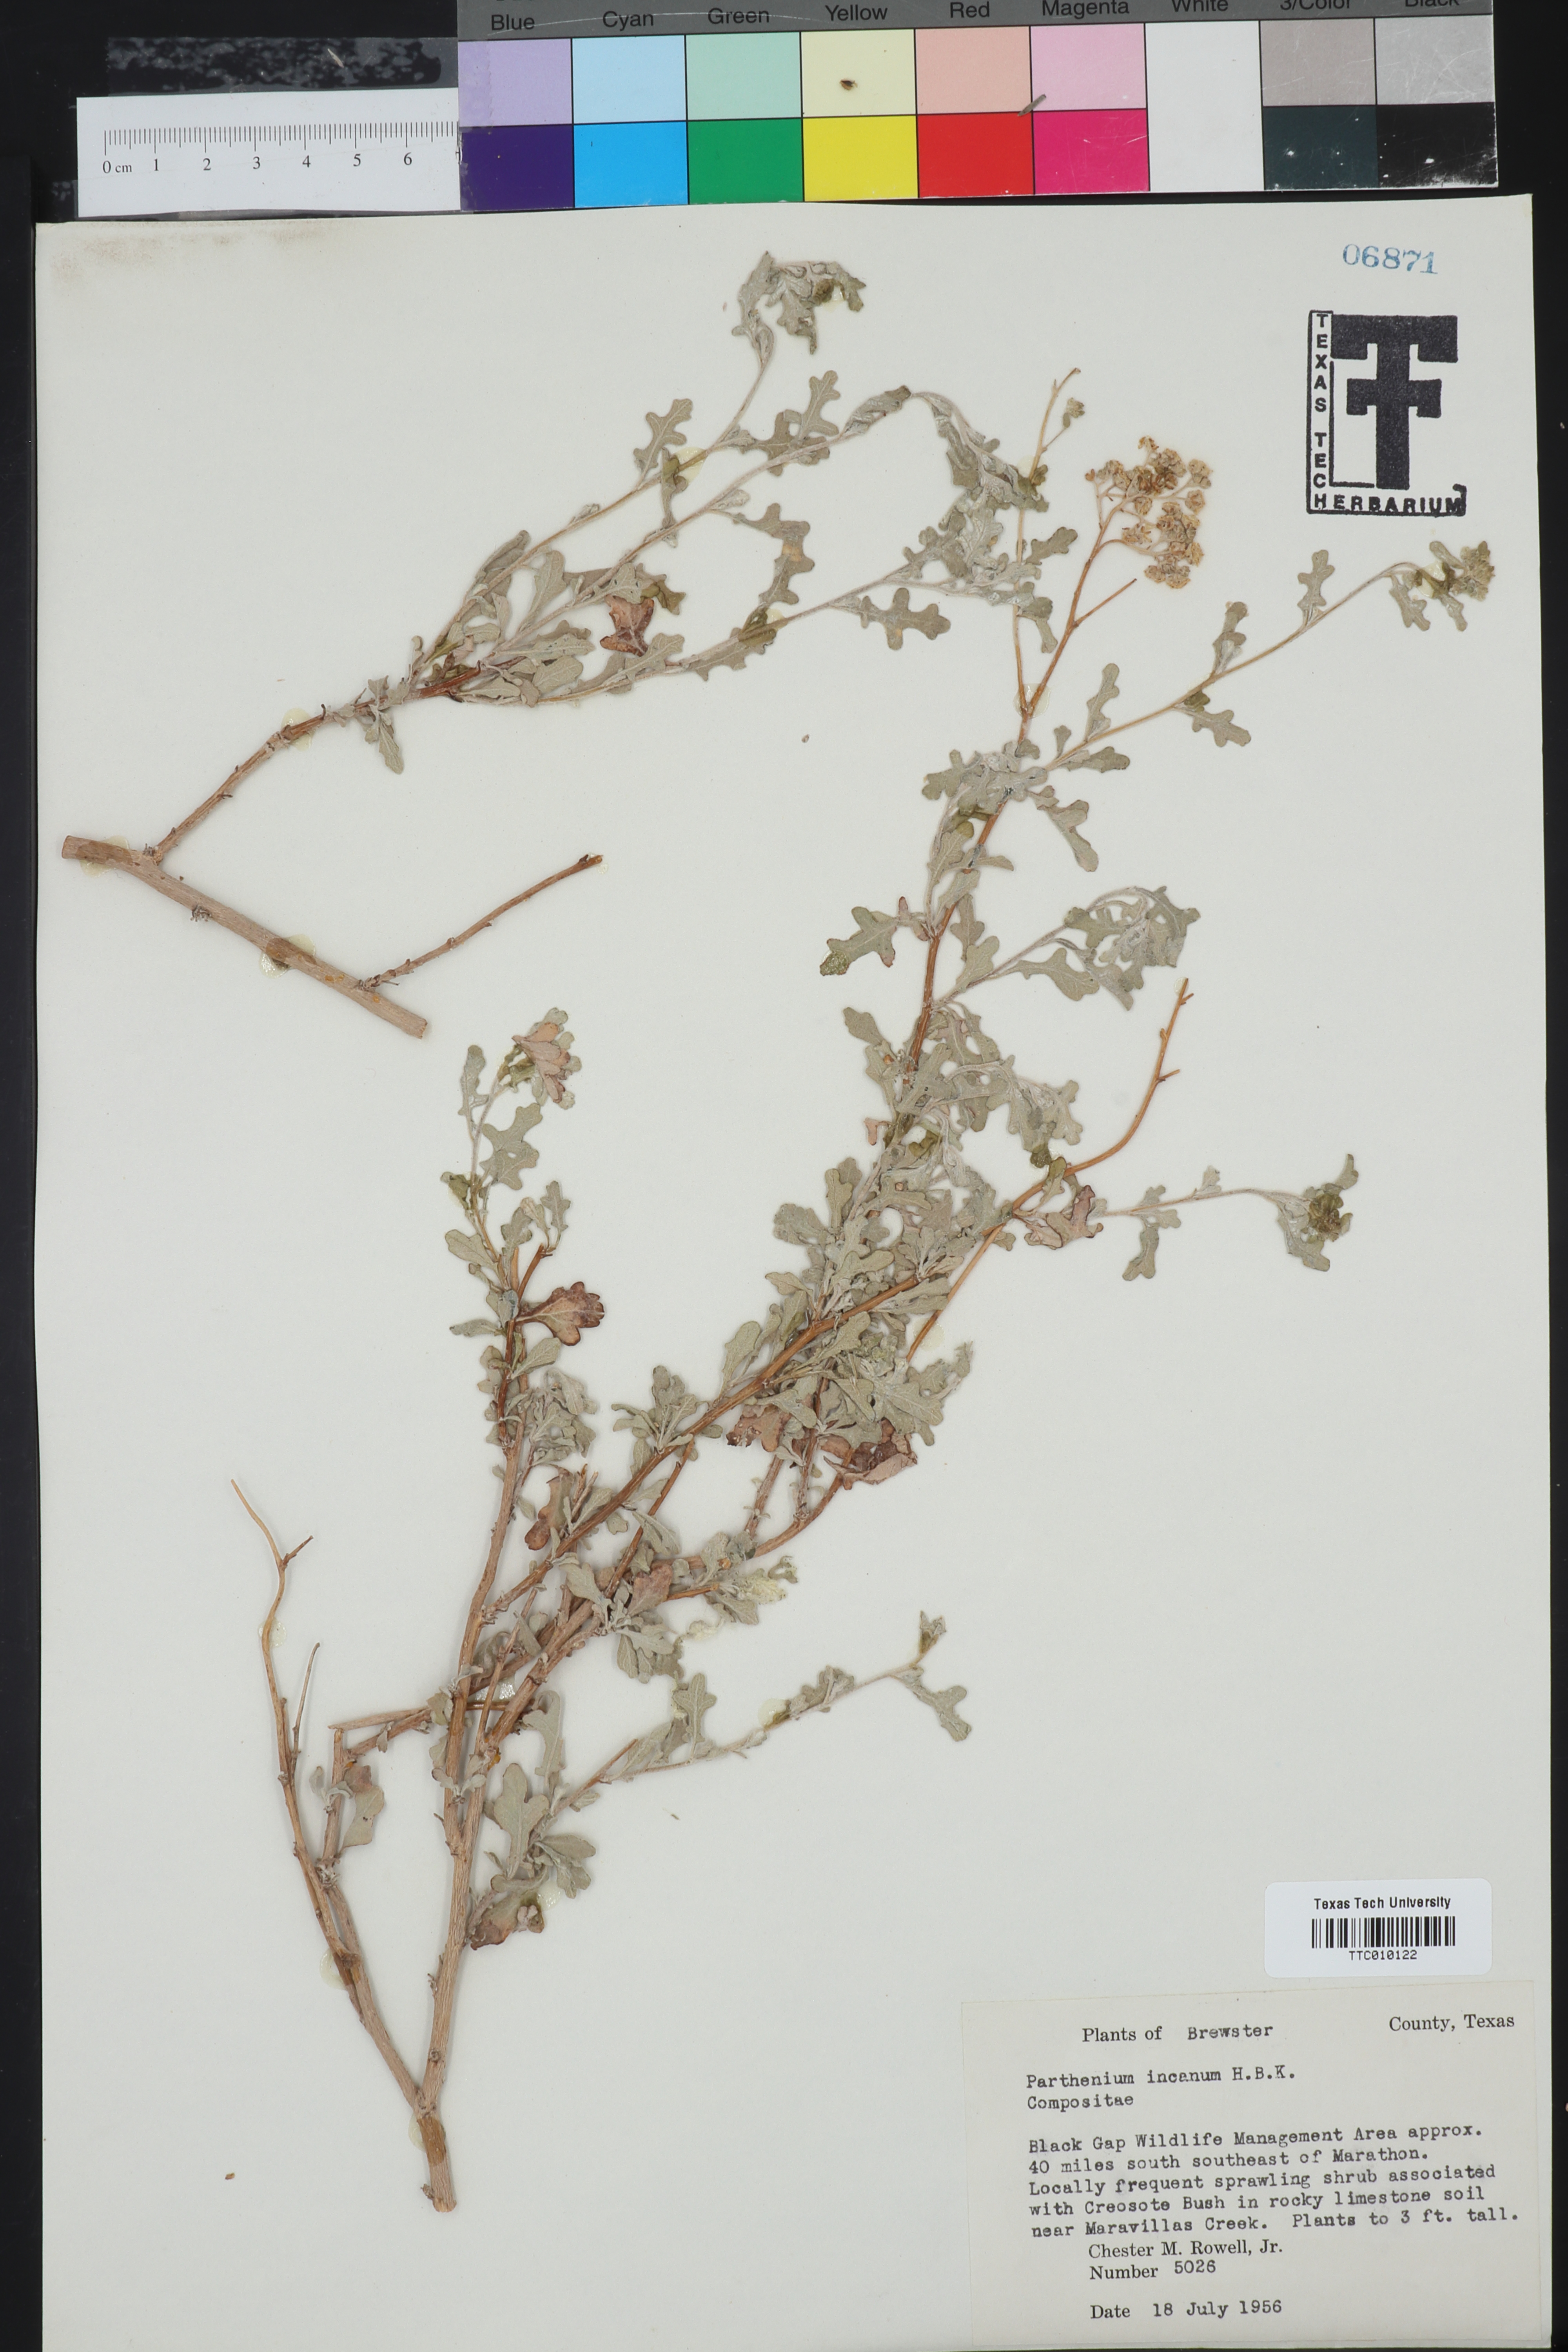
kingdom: Plantae
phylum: Tracheophyta
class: Magnoliopsida
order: Asterales
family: Asteraceae
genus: Parthenium
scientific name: Parthenium incanum
